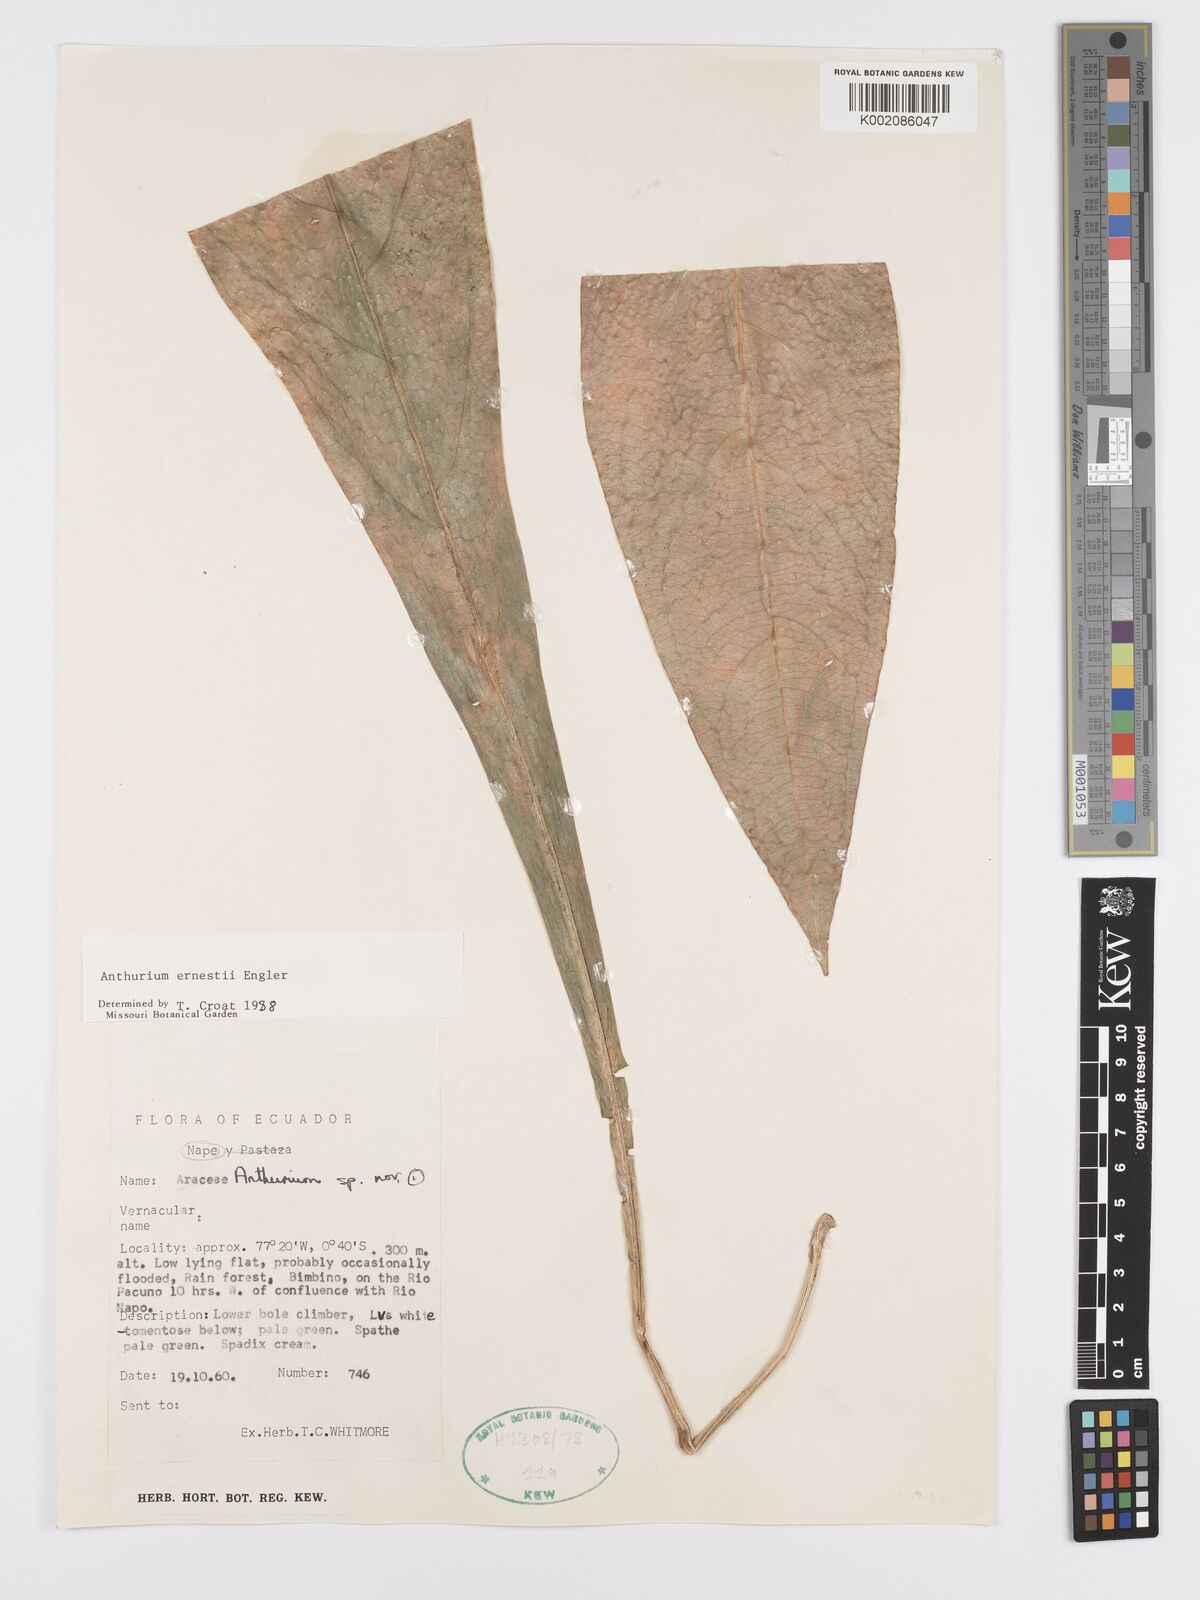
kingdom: Plantae
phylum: Tracheophyta
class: Liliopsida
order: Alismatales
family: Araceae
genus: Anthurium
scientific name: Anthurium ernesti
